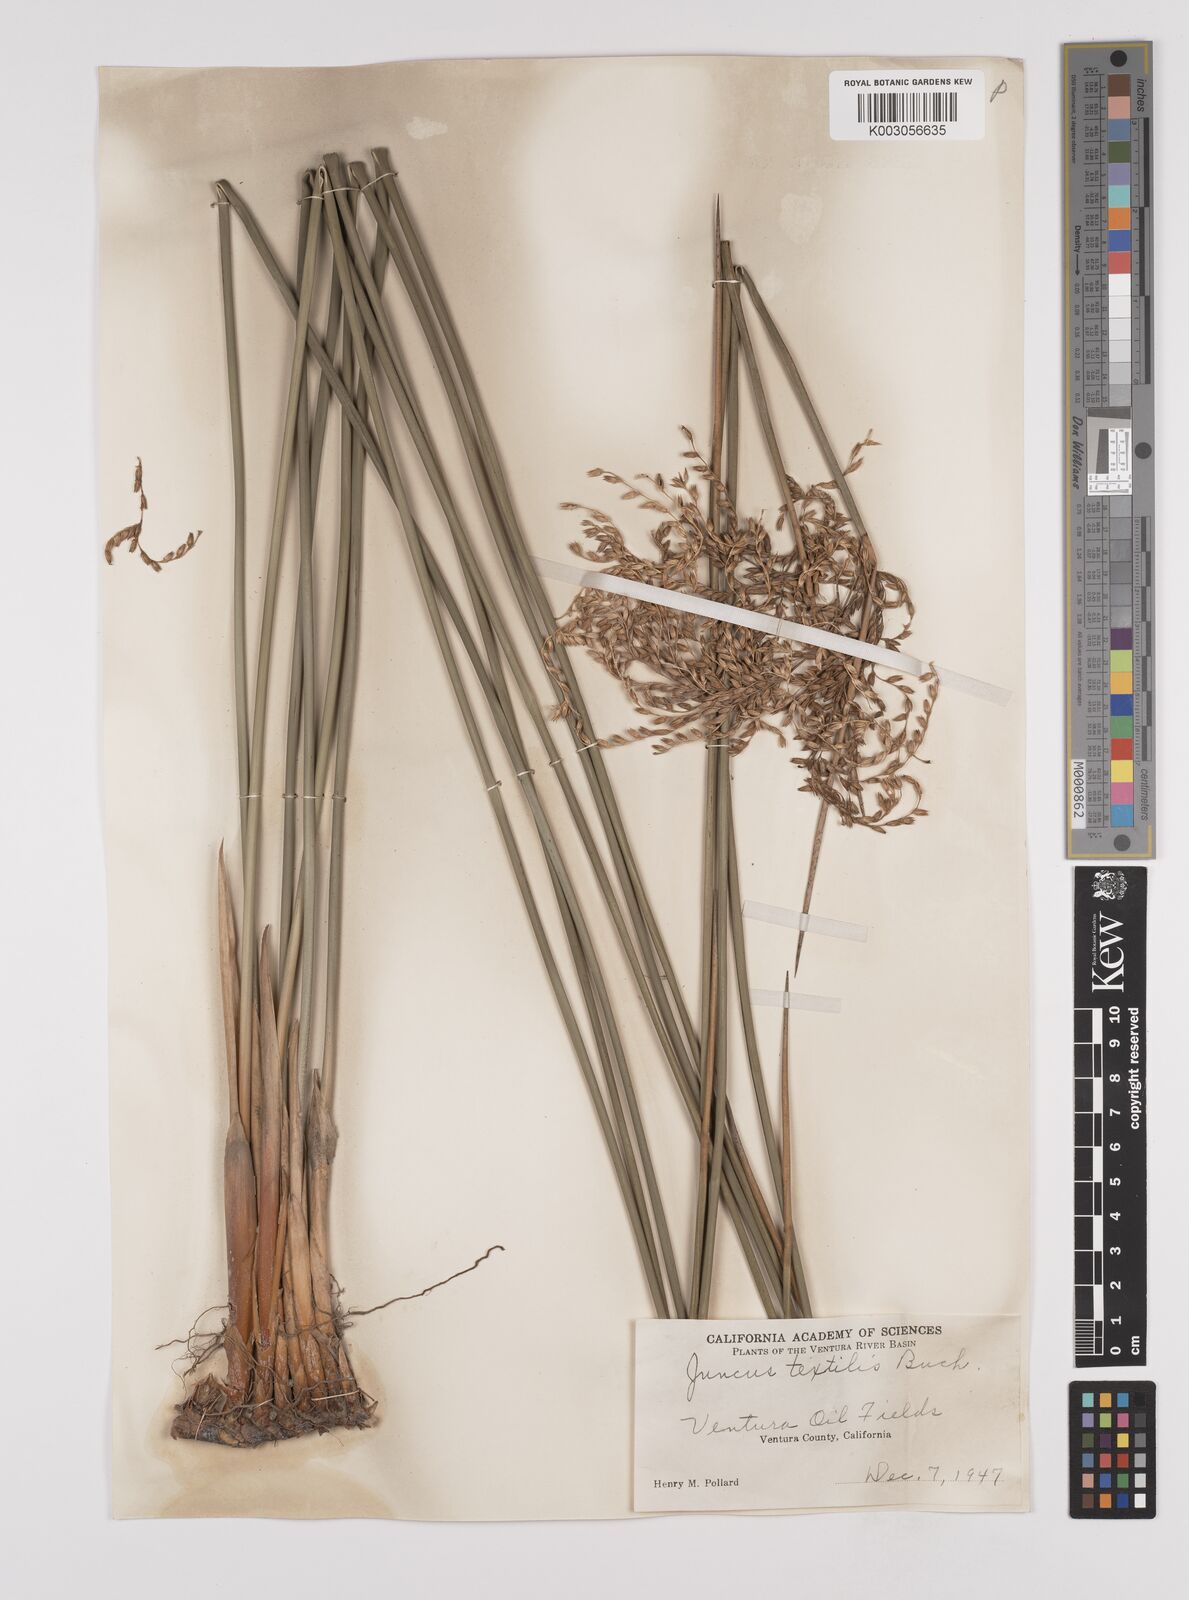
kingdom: Plantae
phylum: Tracheophyta
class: Liliopsida
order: Poales
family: Juncaceae
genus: Juncus
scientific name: Juncus textilis
